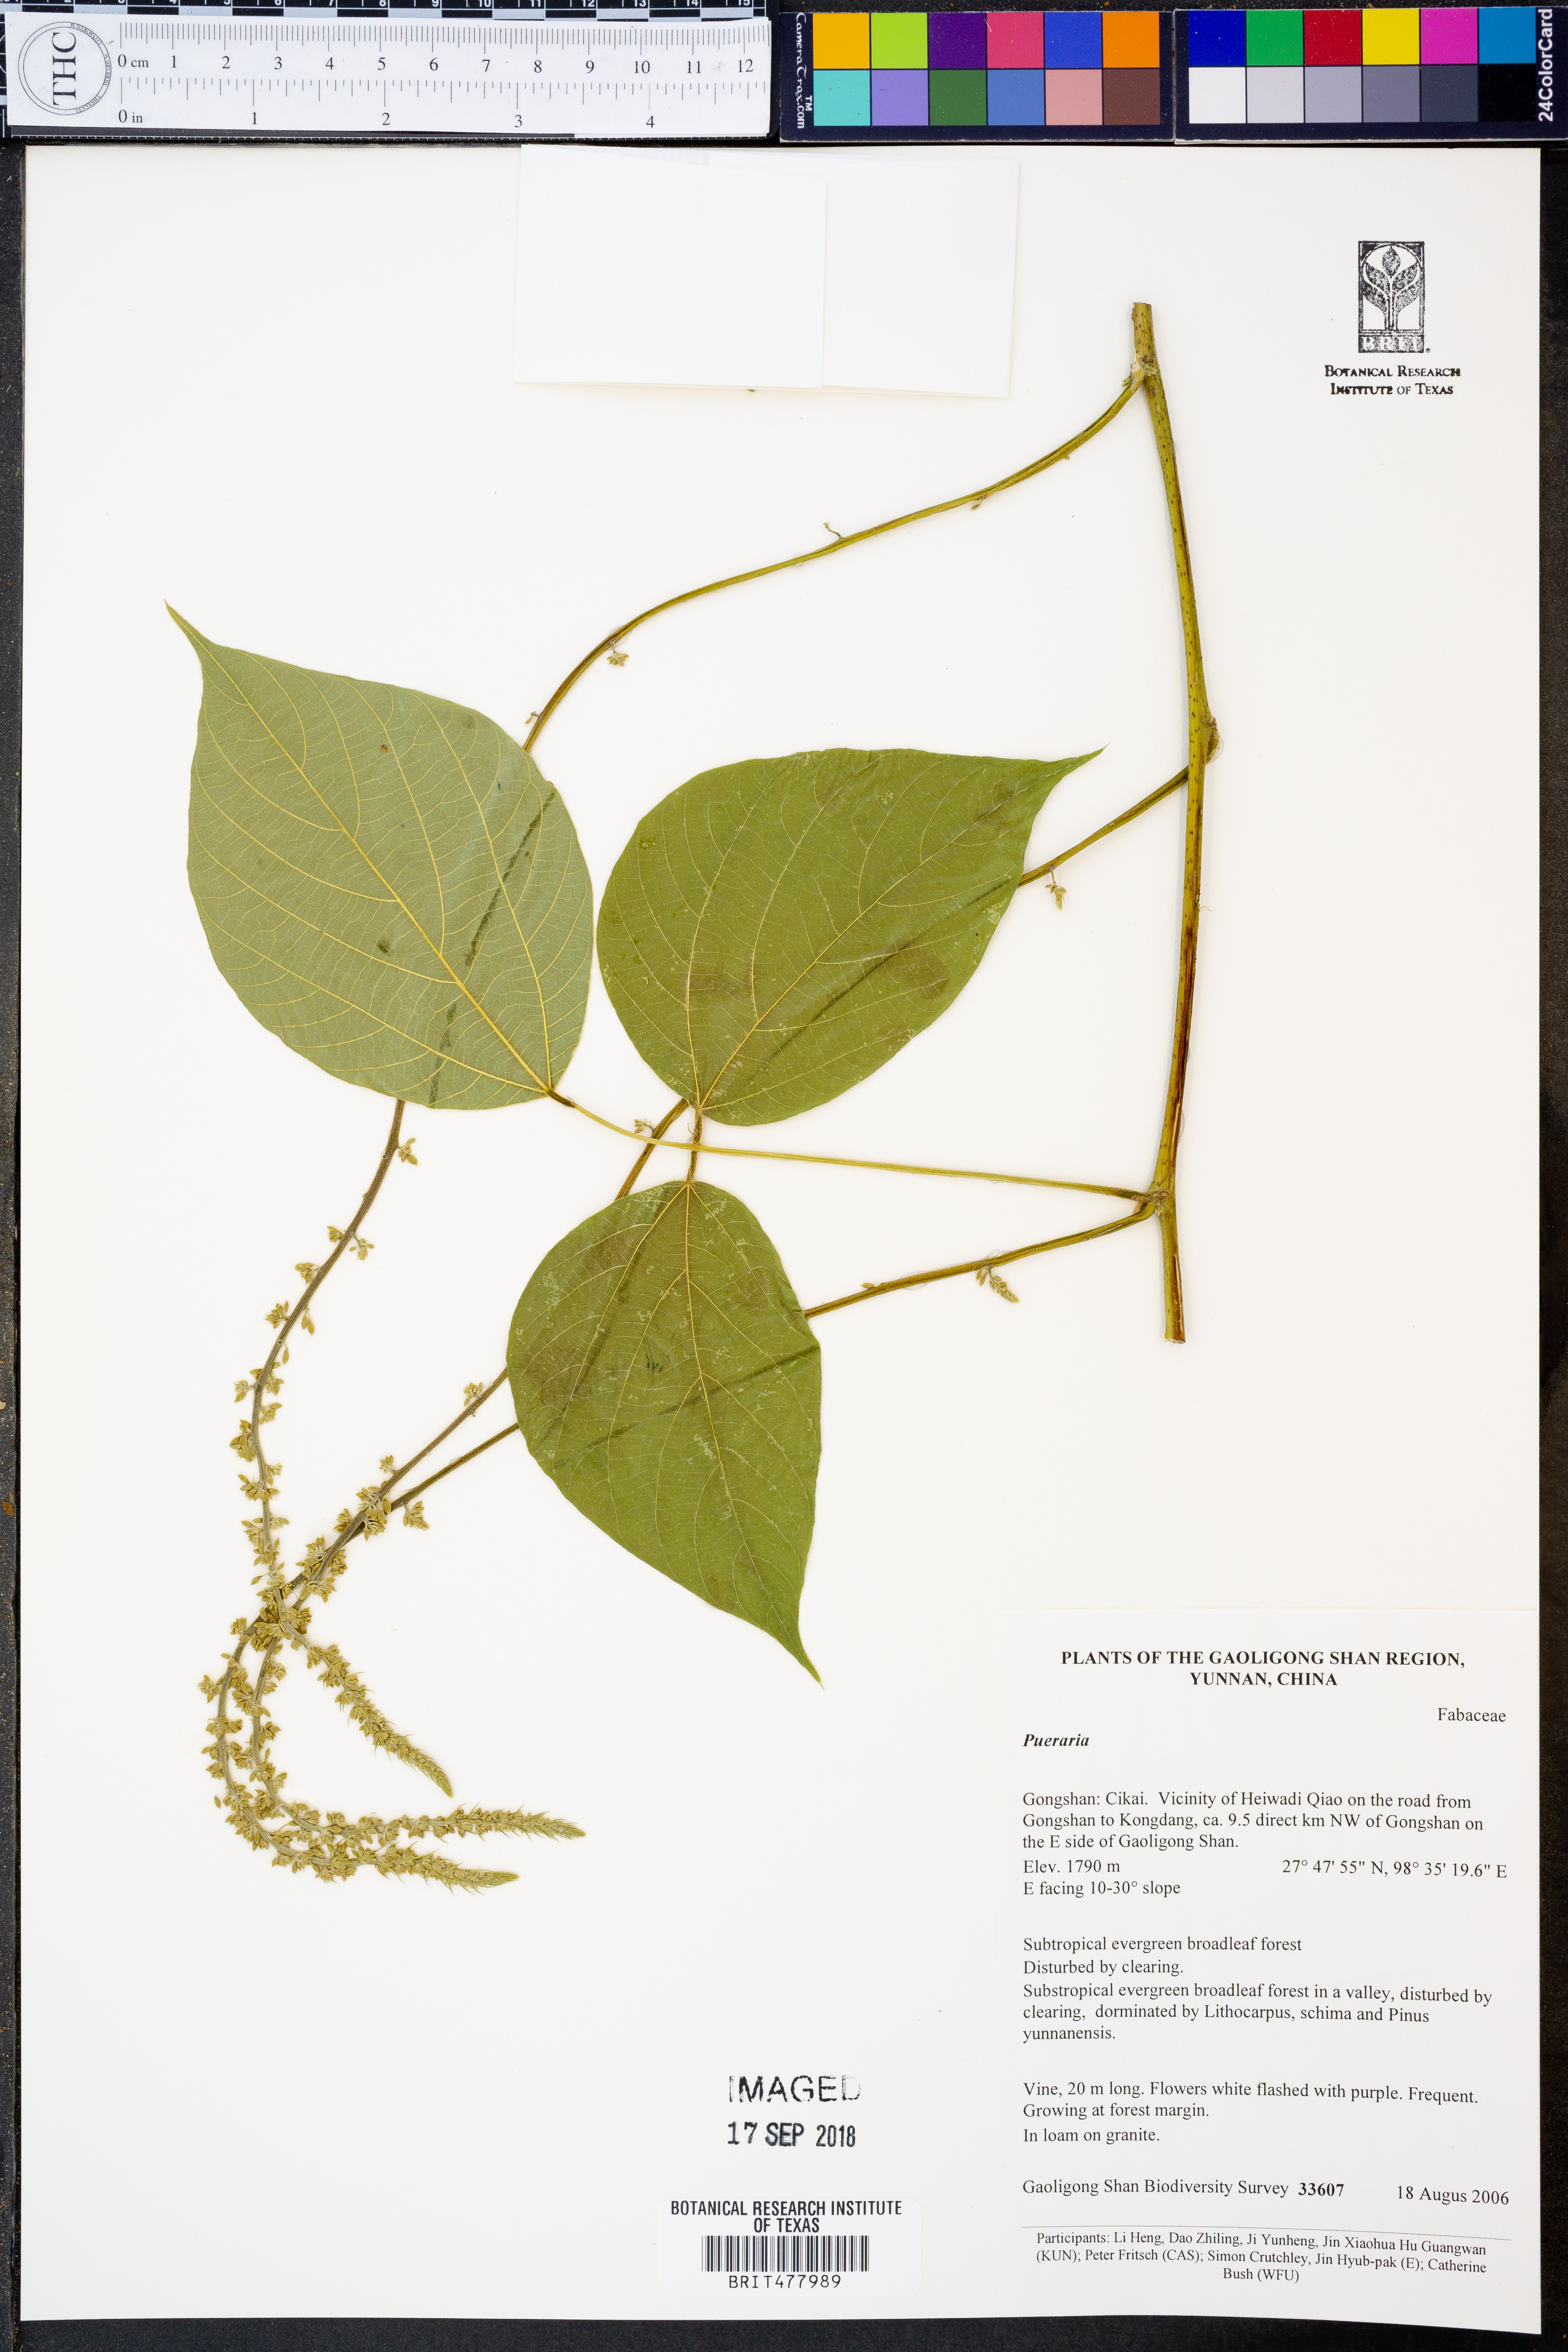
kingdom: Plantae
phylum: Tracheophyta
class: Magnoliopsida
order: Fabales
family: Fabaceae
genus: Pueraria
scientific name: Pueraria
